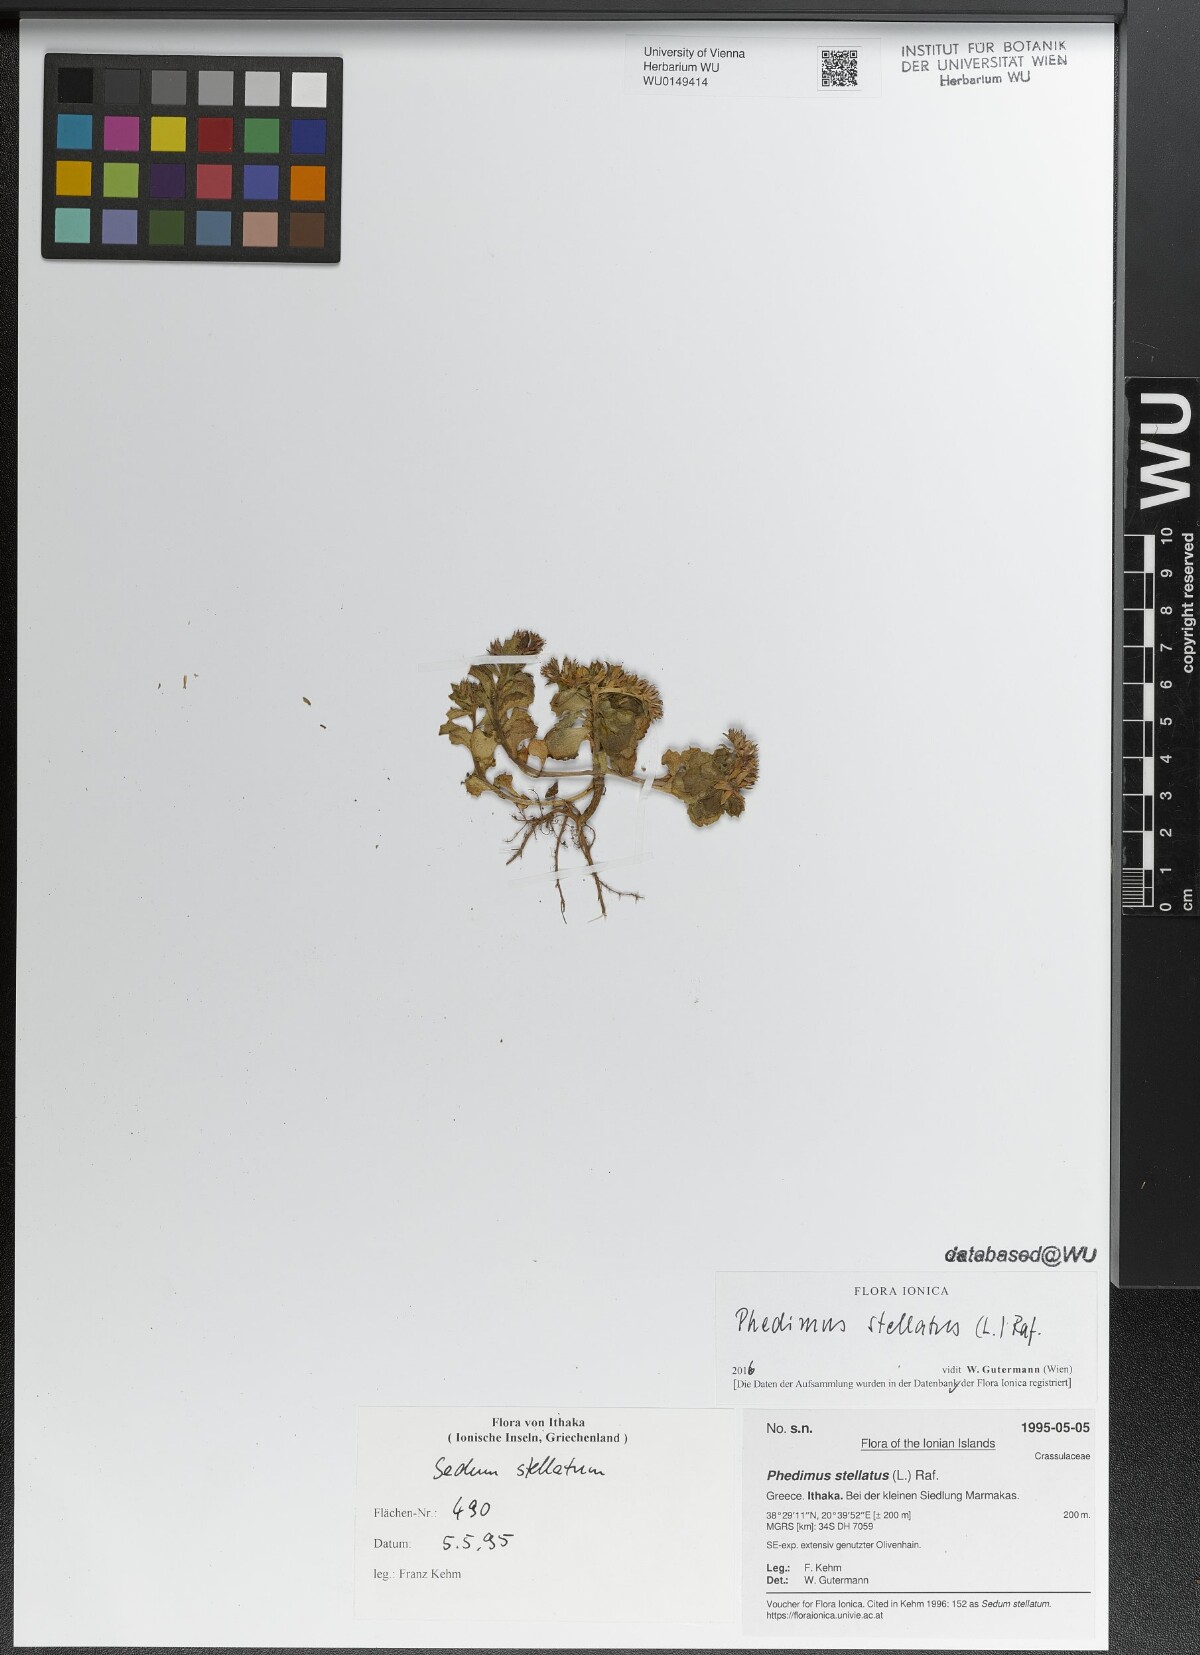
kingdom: Plantae
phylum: Tracheophyta
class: Magnoliopsida
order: Saxifragales
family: Crassulaceae
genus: Phedimus
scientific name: Phedimus stellatus
